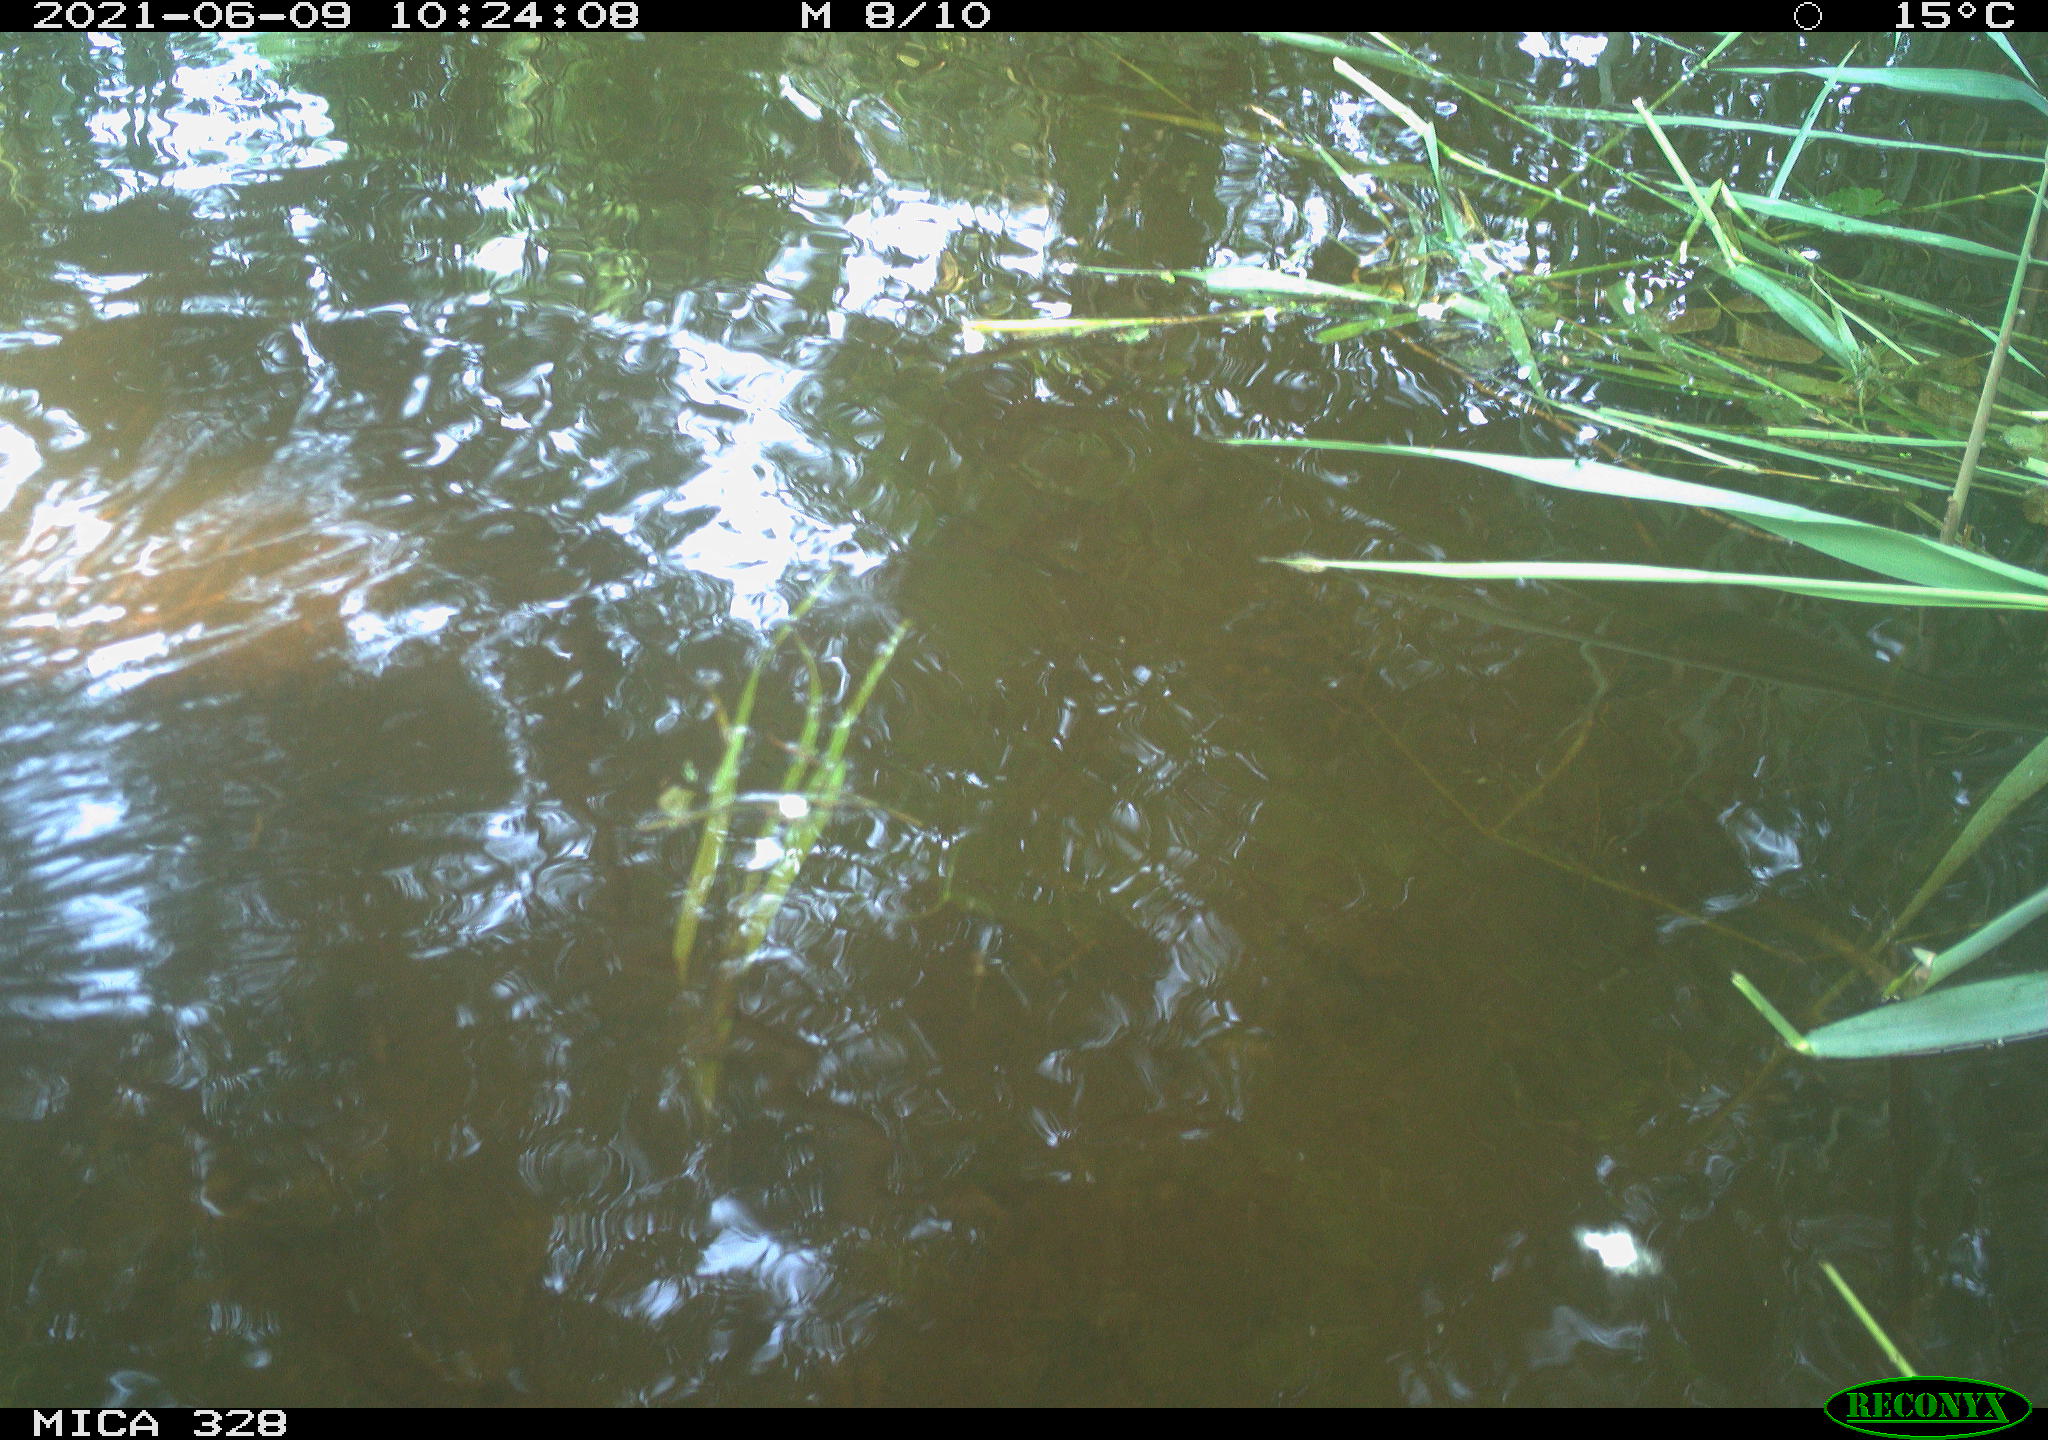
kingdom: Animalia
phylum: Chordata
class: Aves
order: Anseriformes
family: Anatidae
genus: Aix
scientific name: Aix galericulata
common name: Mandarin duck
